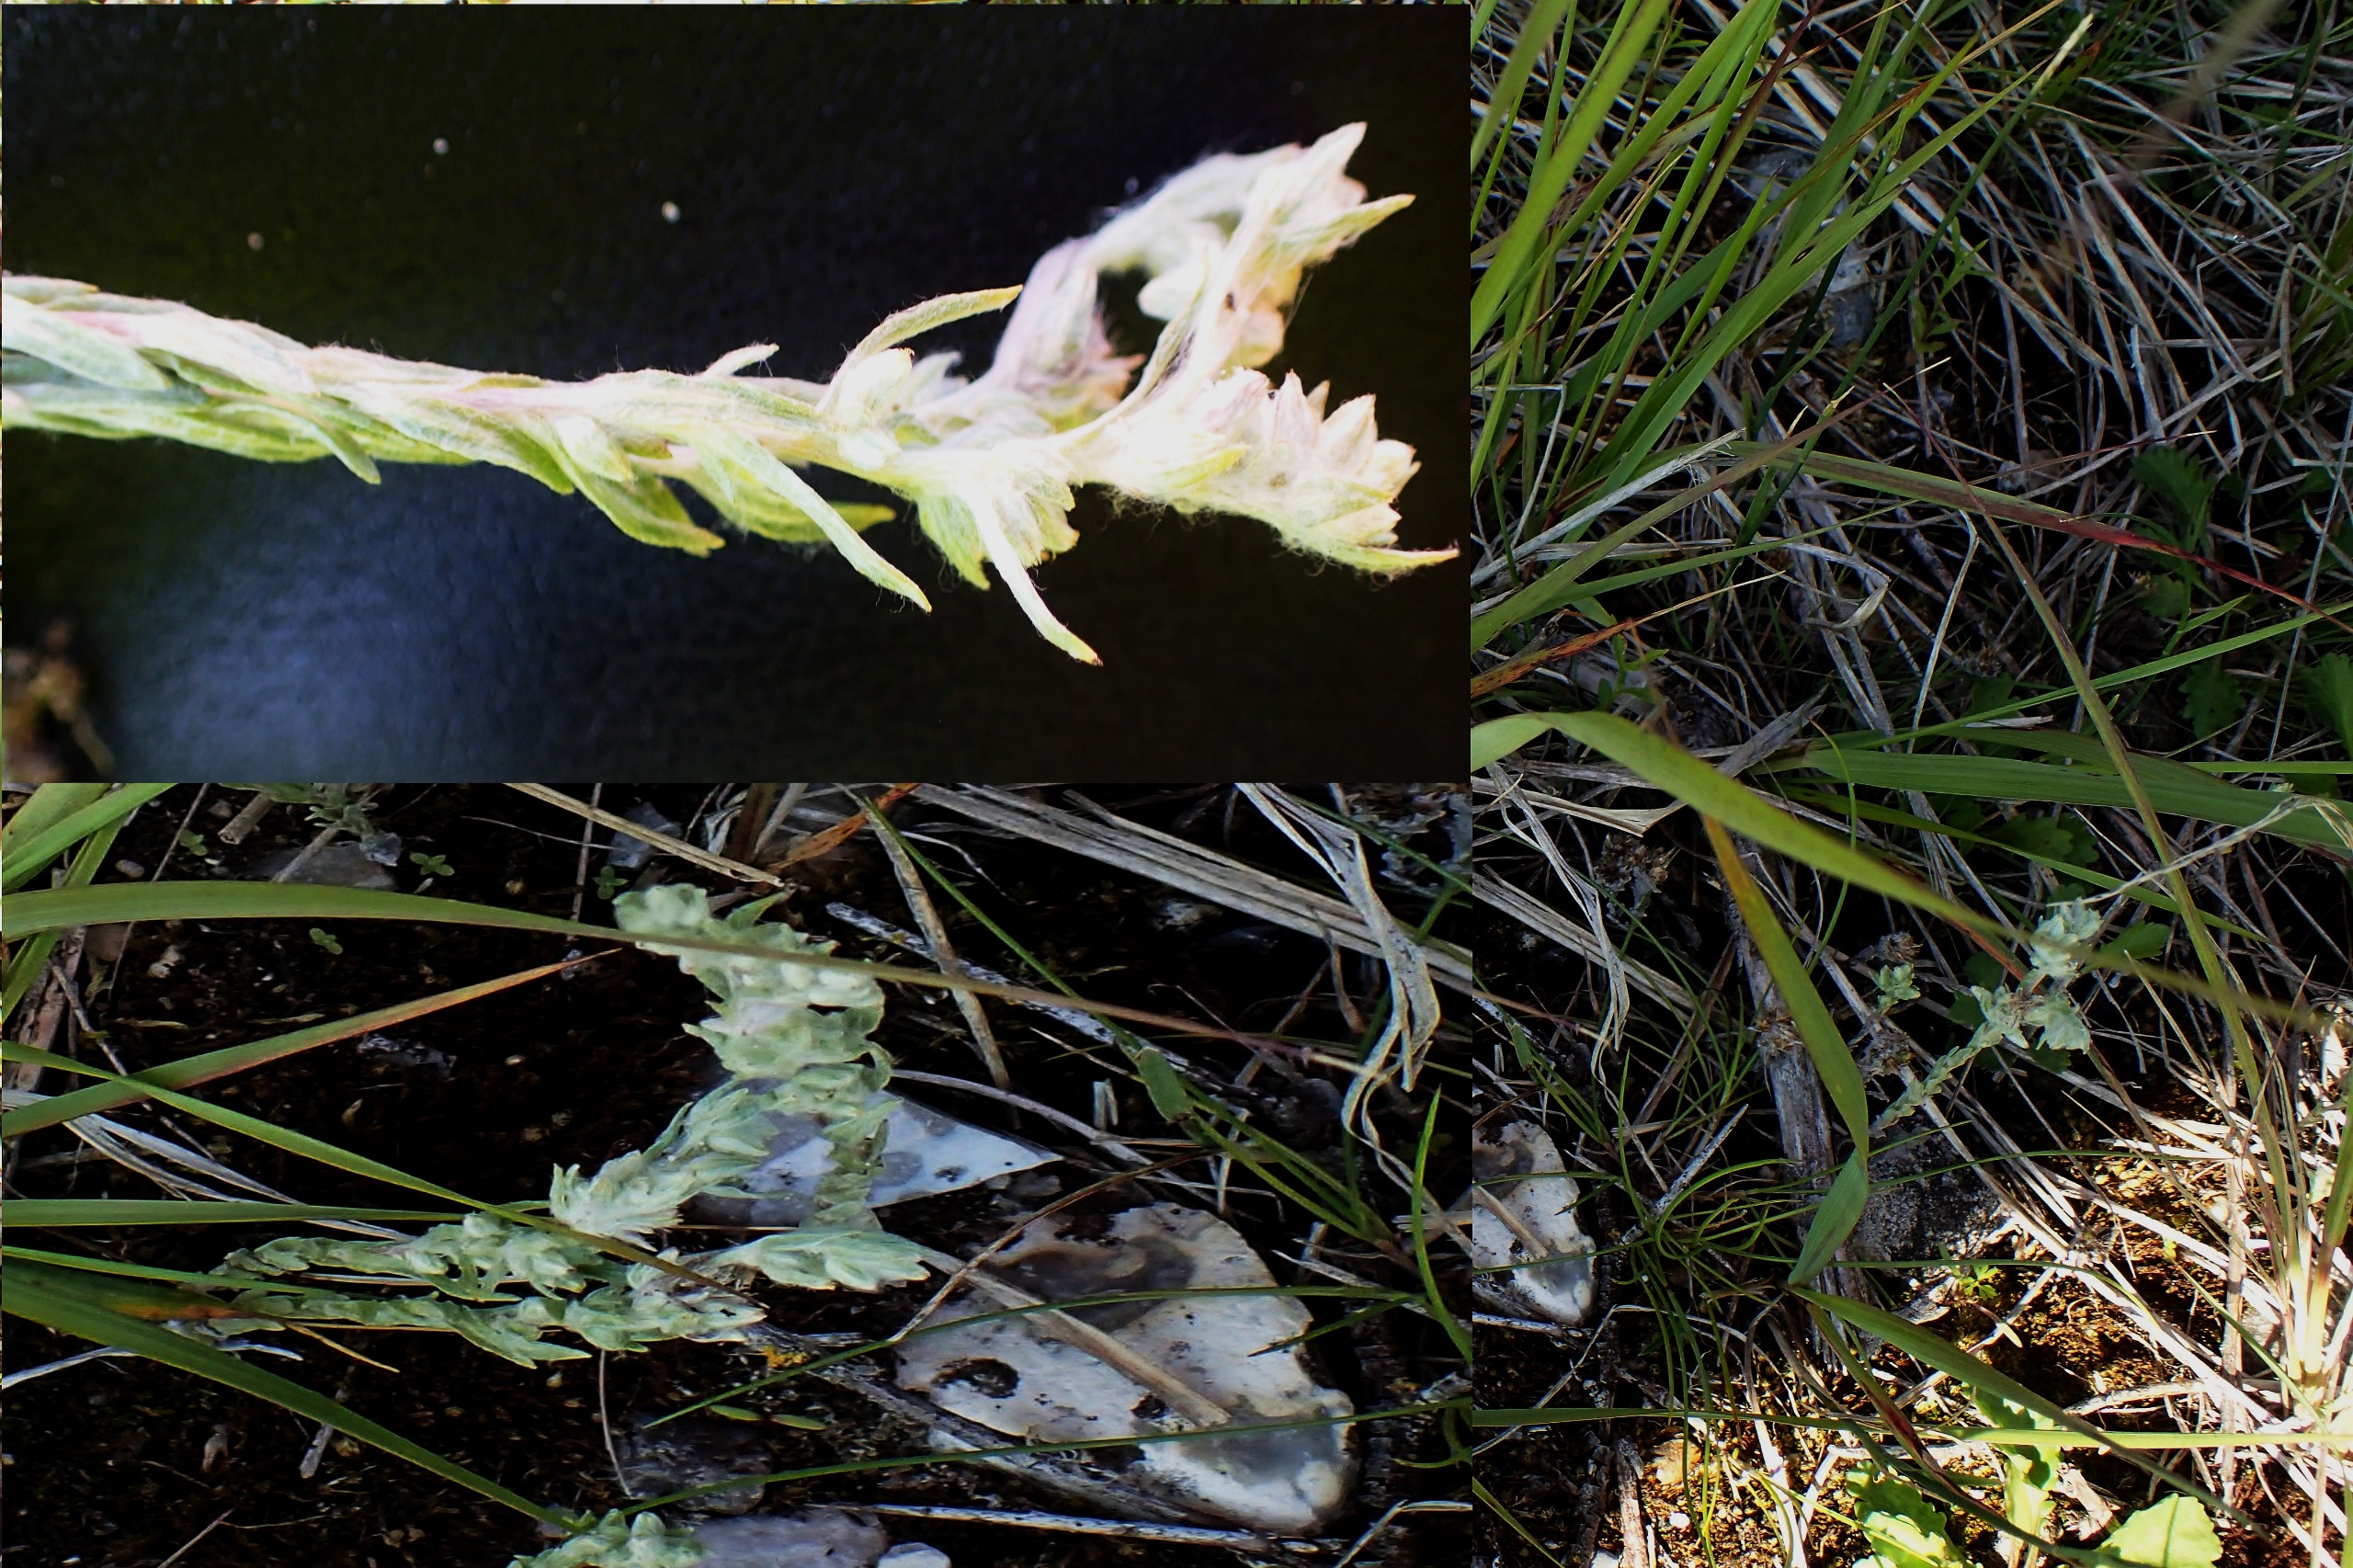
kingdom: Plantae
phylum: Tracheophyta
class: Magnoliopsida
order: Asterales
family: Asteraceae
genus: Logfia
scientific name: Logfia minima
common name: Liden museurt
